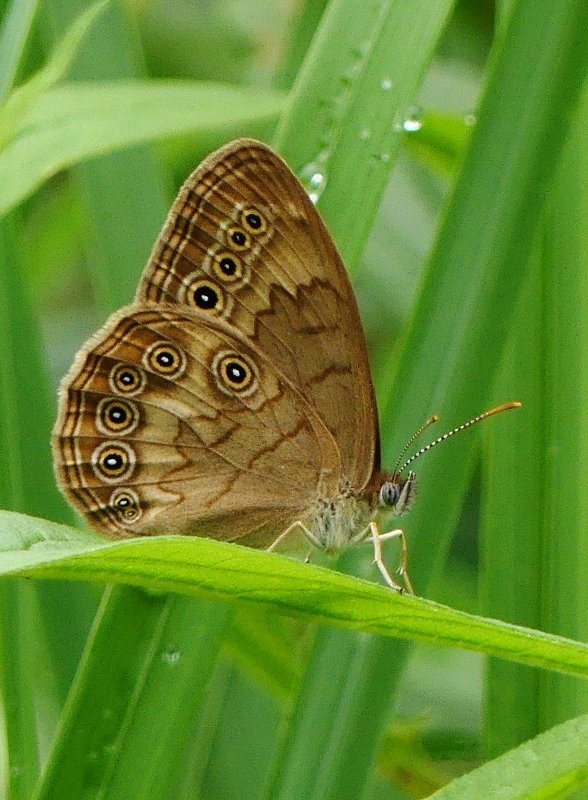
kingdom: Animalia
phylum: Arthropoda
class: Insecta
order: Lepidoptera
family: Nymphalidae
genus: Lethe
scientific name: Lethe eurydice
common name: Eyed Brown
